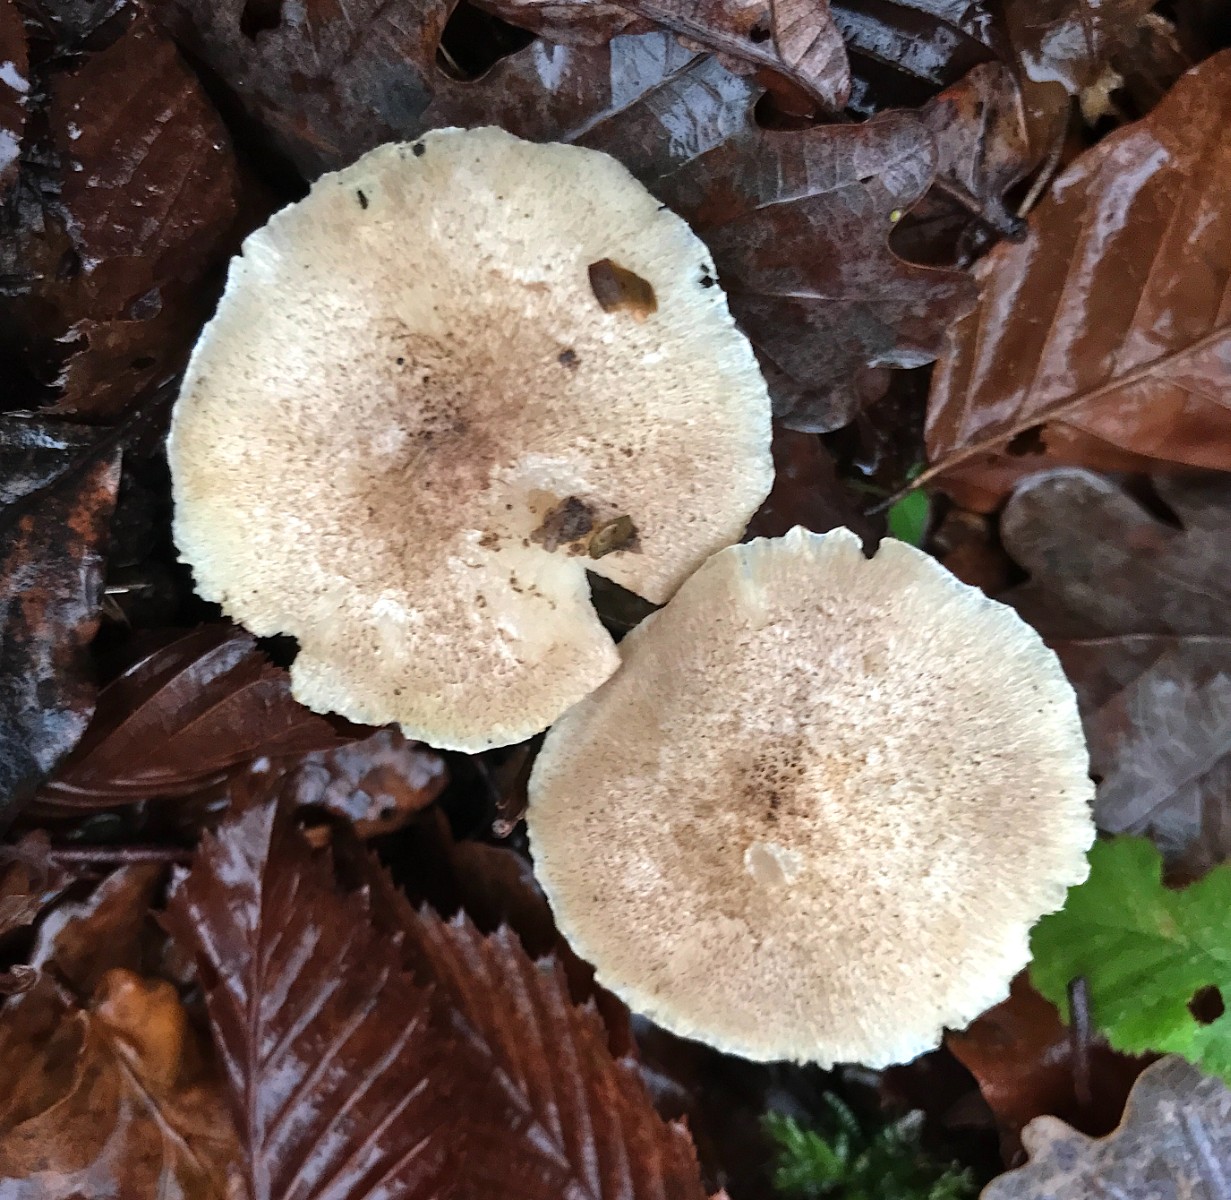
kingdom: Fungi
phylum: Basidiomycota
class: Agaricomycetes
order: Agaricales
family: Tricholomataceae
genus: Tricholoma
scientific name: Tricholoma scalpturatum
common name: gulplettet ridderhat
